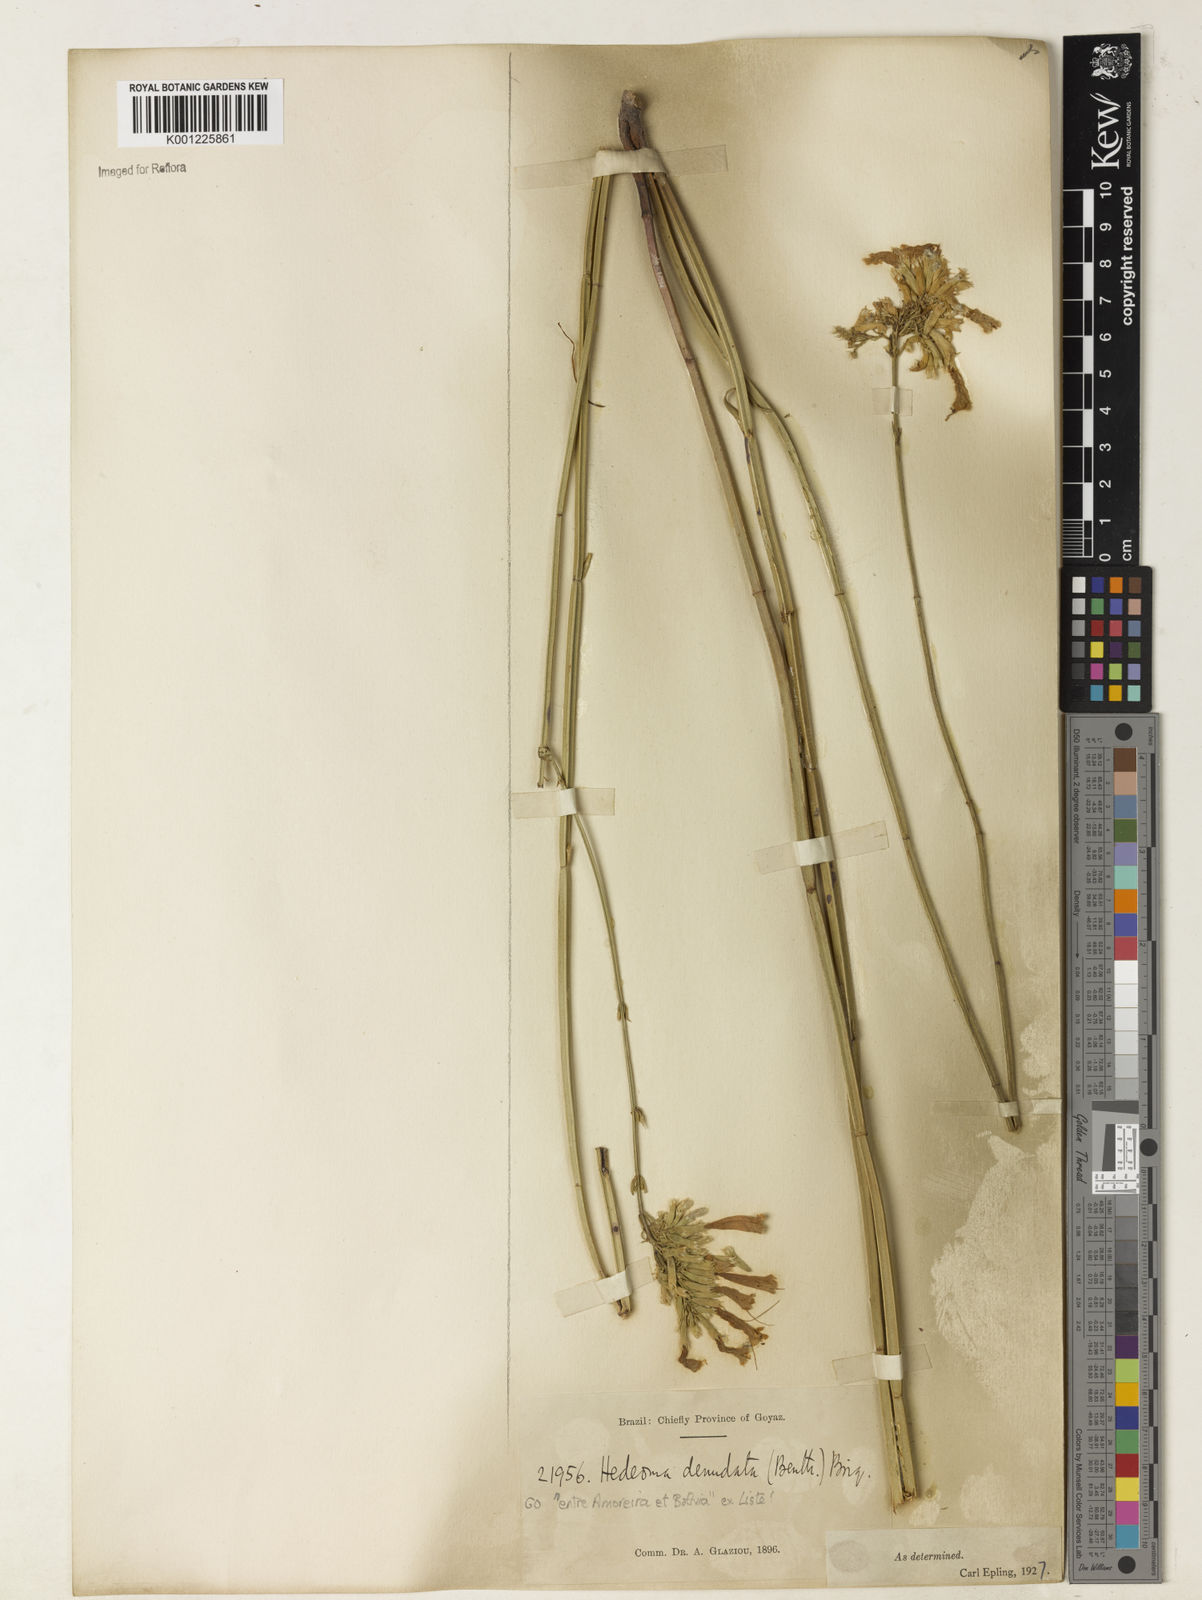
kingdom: Plantae
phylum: Tracheophyta
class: Magnoliopsida
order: Lamiales
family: Lamiaceae
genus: Rhabdocaulon
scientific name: Rhabdocaulon denudatum
